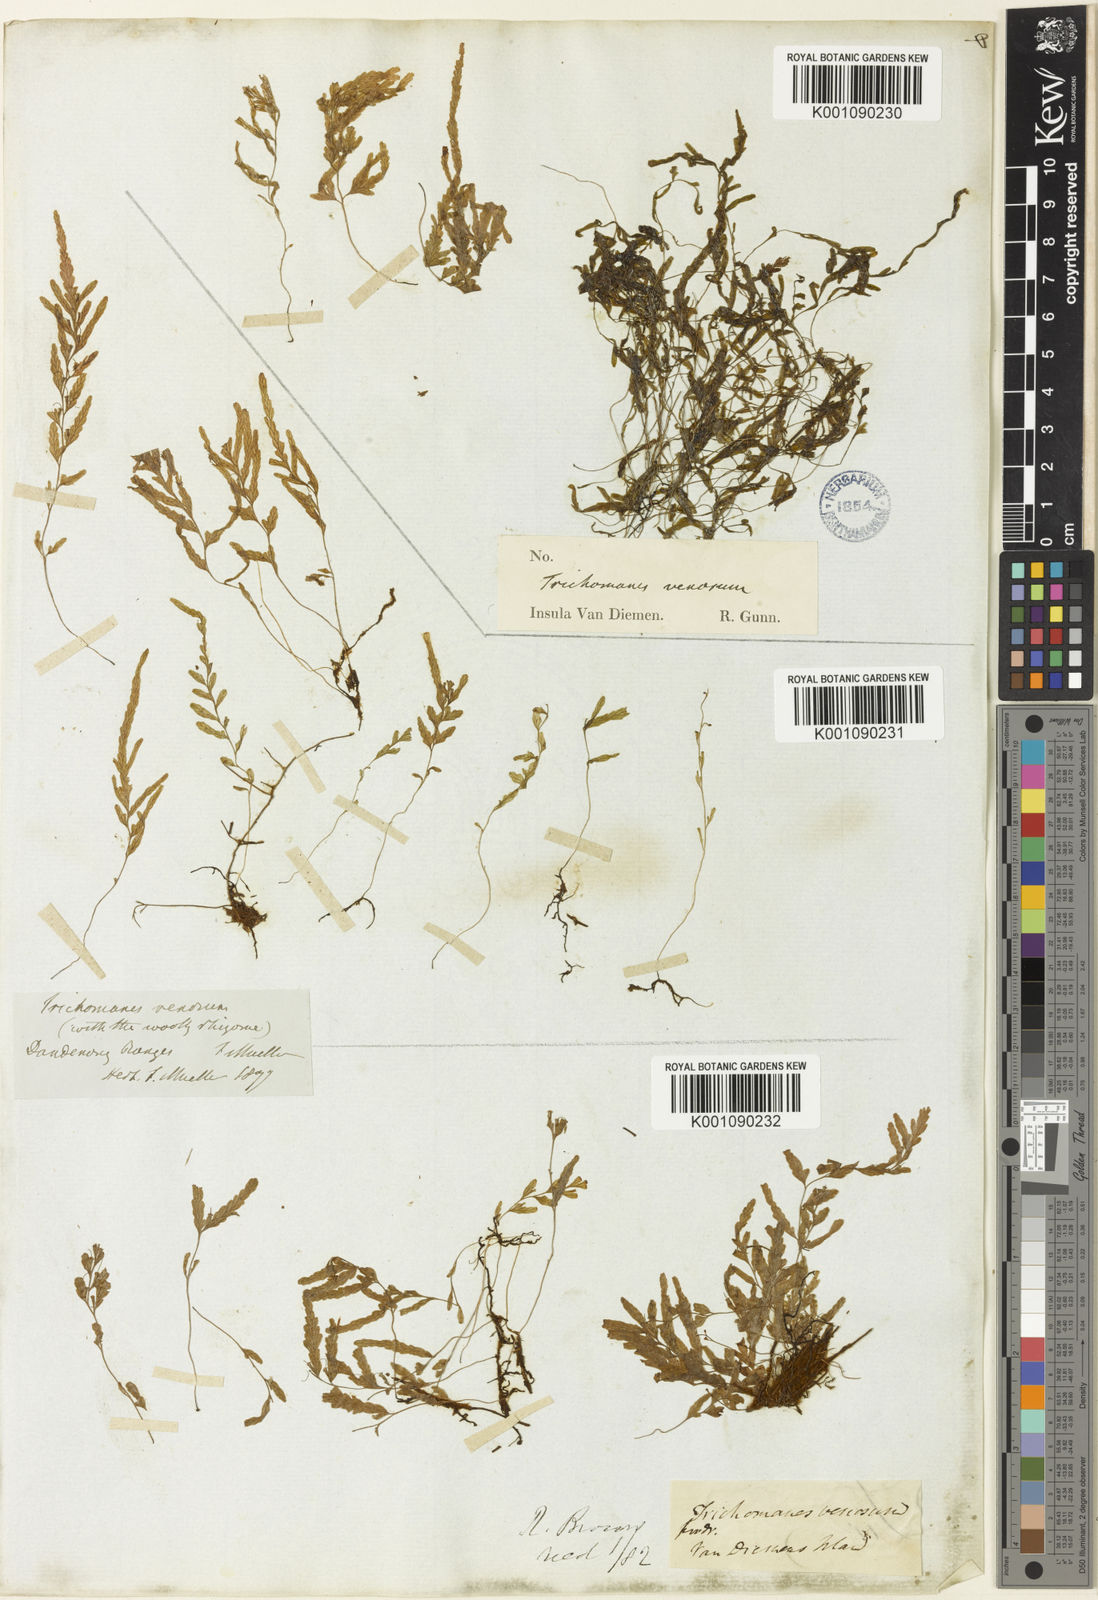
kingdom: Plantae
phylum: Tracheophyta
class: Polypodiopsida
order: Hymenophyllales
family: Hymenophyllaceae
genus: Polyphlebium
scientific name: Polyphlebium venosum
